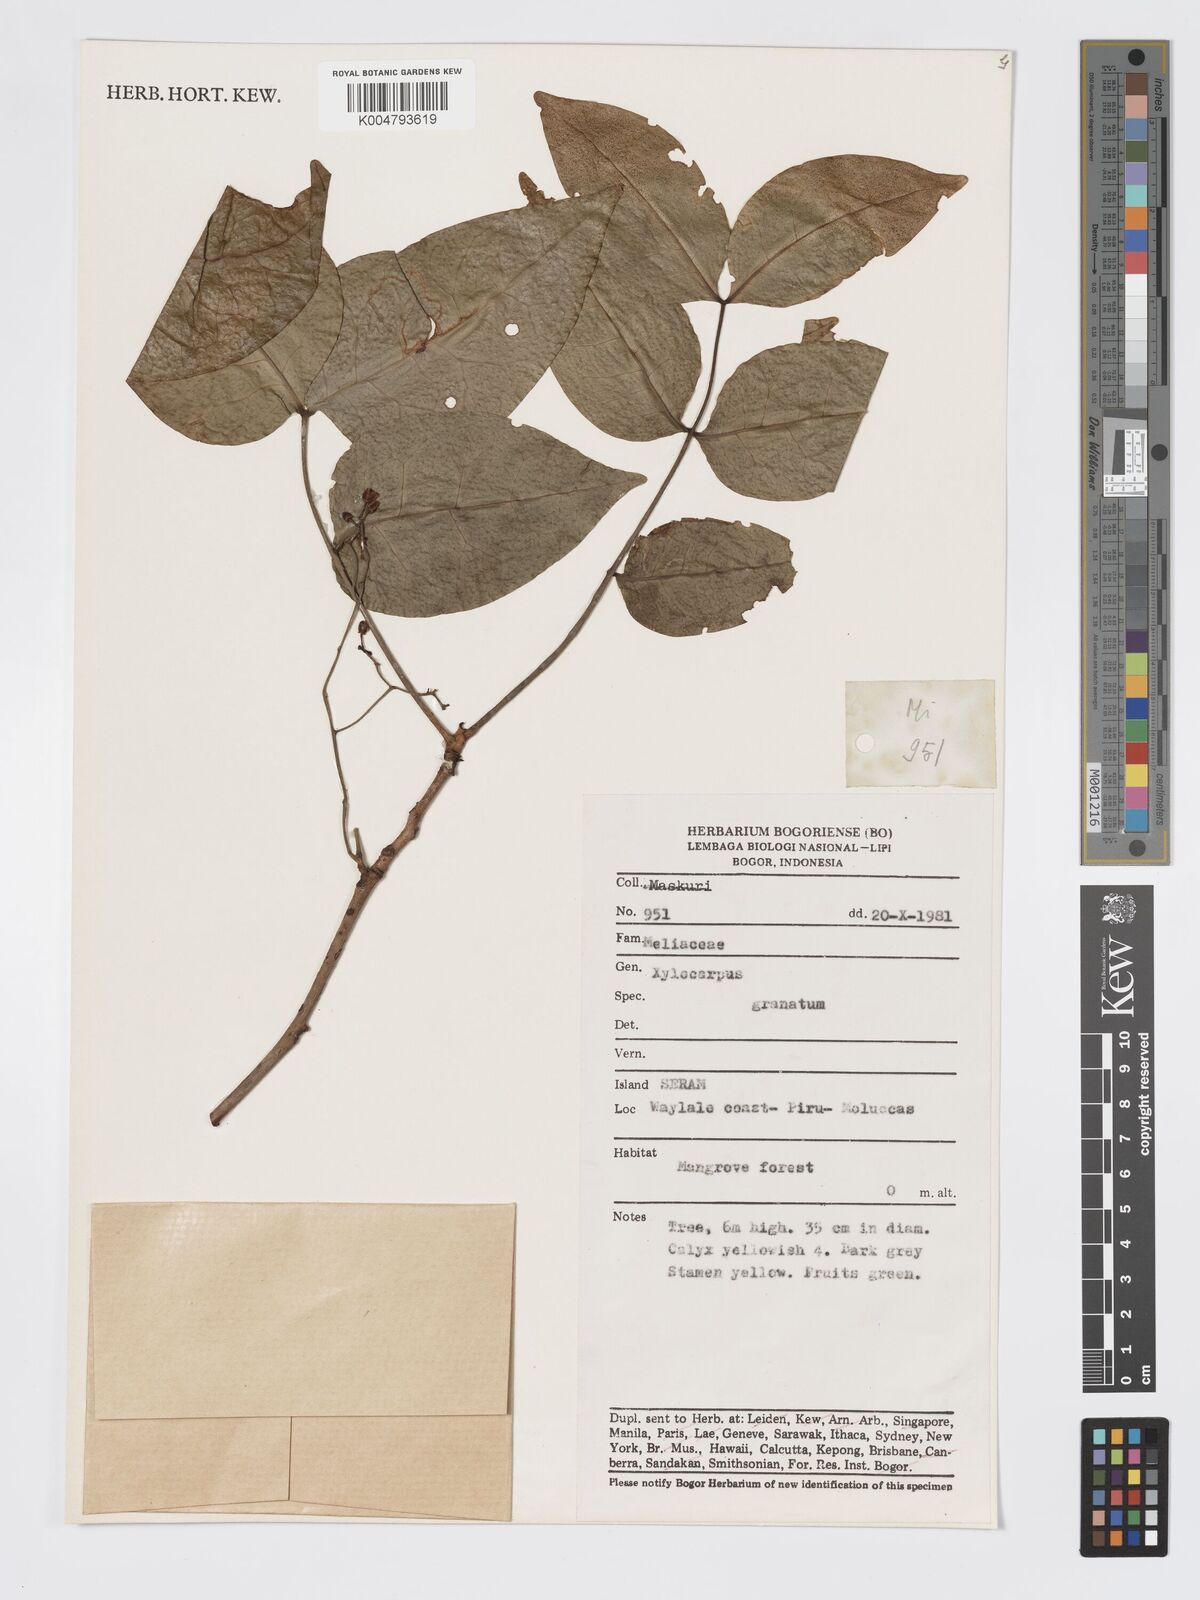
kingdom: Plantae
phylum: Tracheophyta
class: Magnoliopsida
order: Sapindales
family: Meliaceae
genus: Xylocarpus
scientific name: Xylocarpus granatum
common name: Apple mangrove
